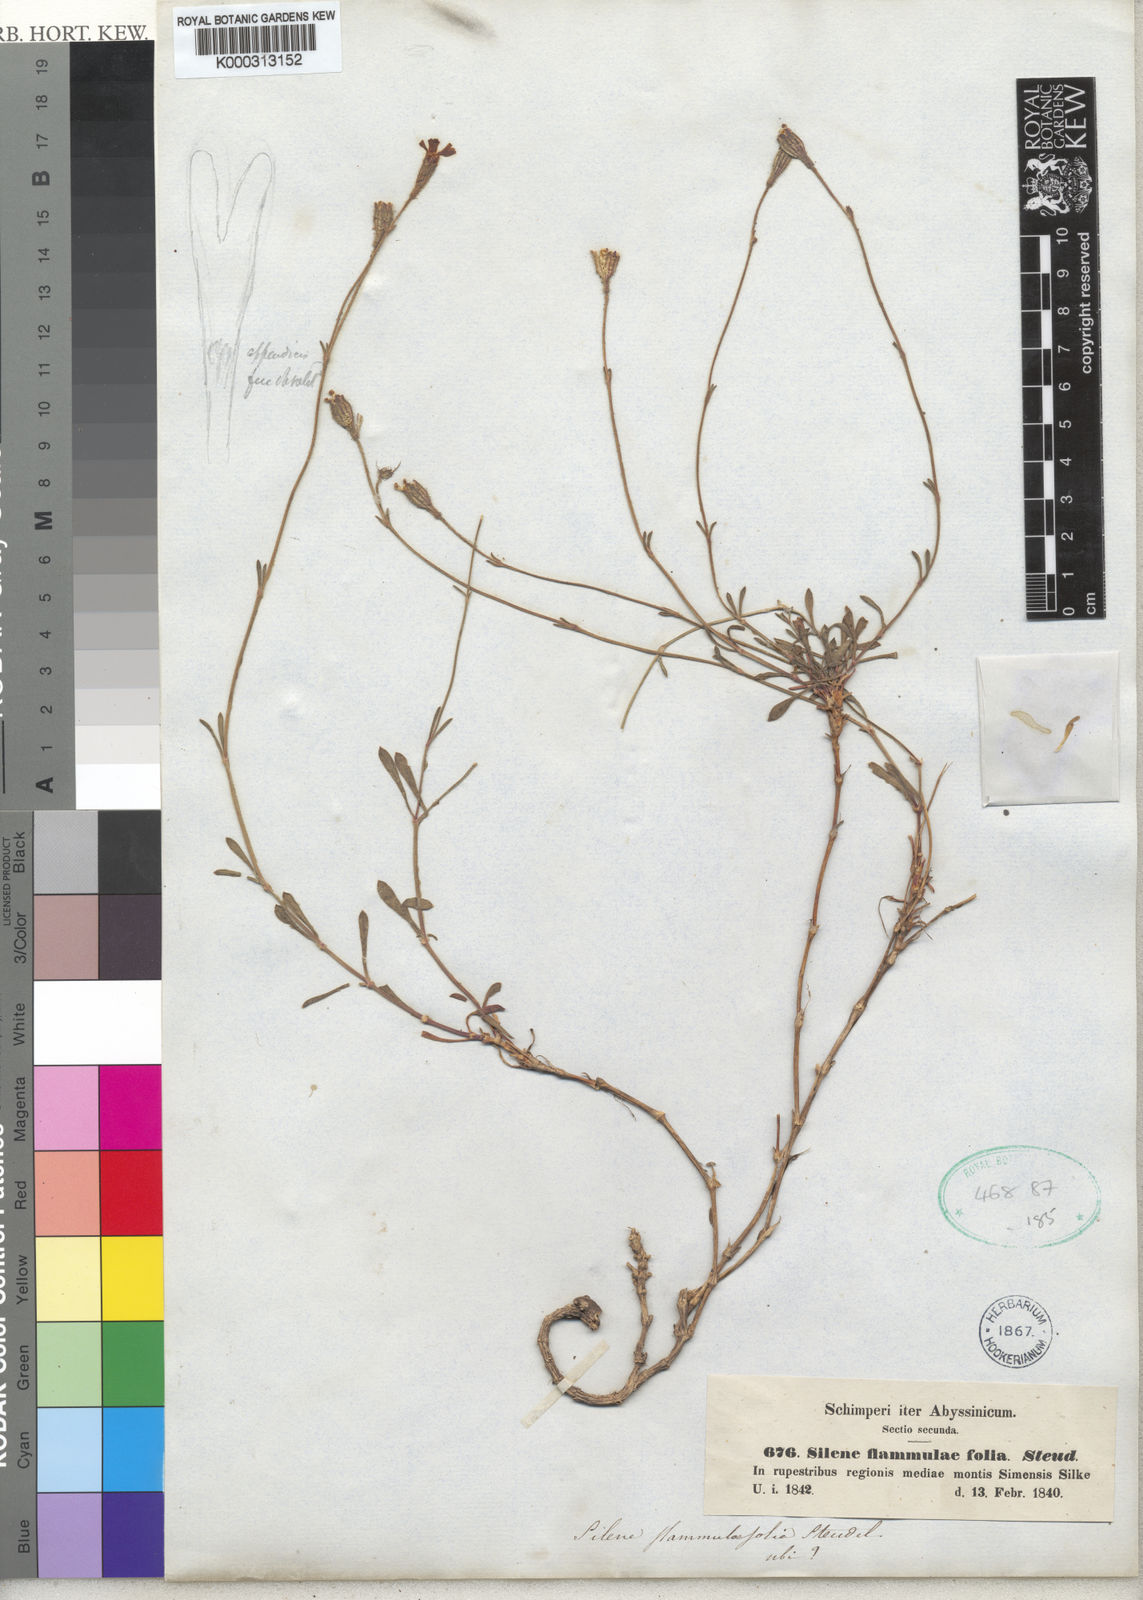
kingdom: Plantae
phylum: Tracheophyta
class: Magnoliopsida
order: Caryophyllales
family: Caryophyllaceae
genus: Silene
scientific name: Silene
